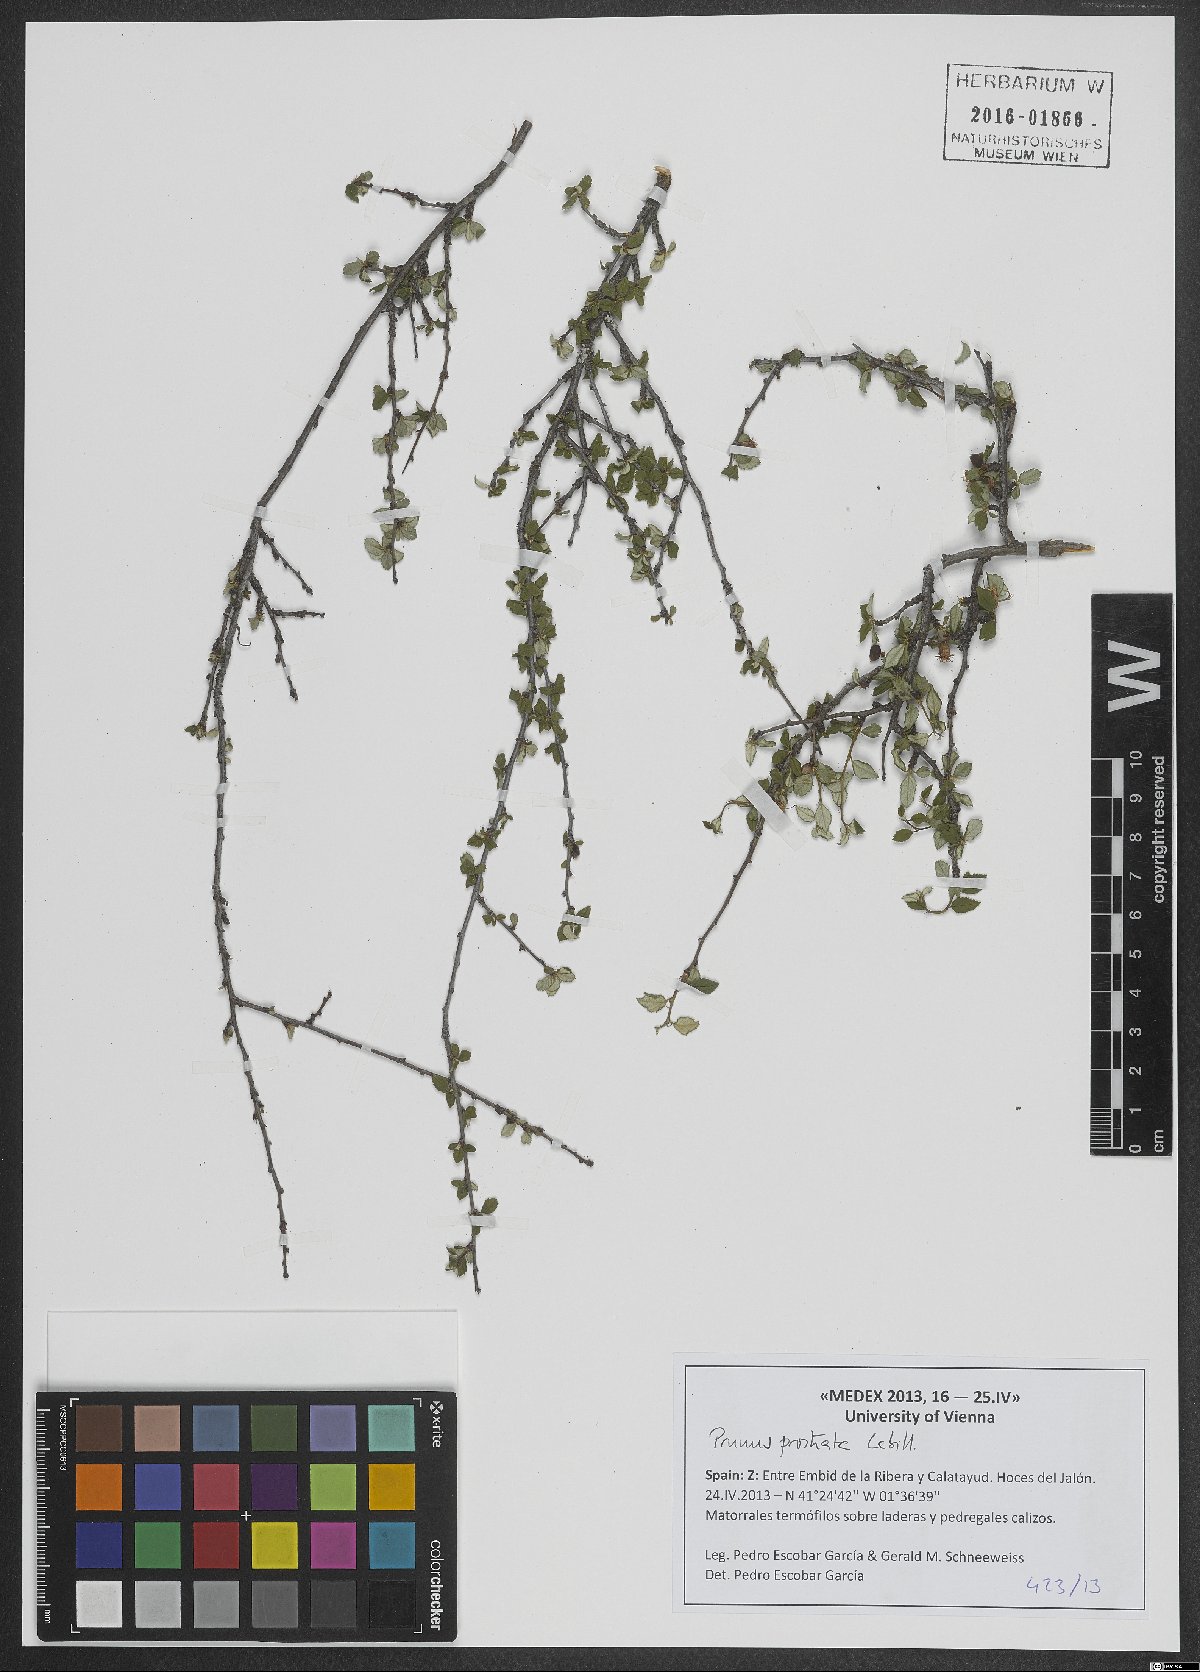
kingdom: Plantae
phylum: Tracheophyta
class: Magnoliopsida
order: Rosales
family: Rosaceae
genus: Prunus
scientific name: Prunus prostrata
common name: Mountain cherry
